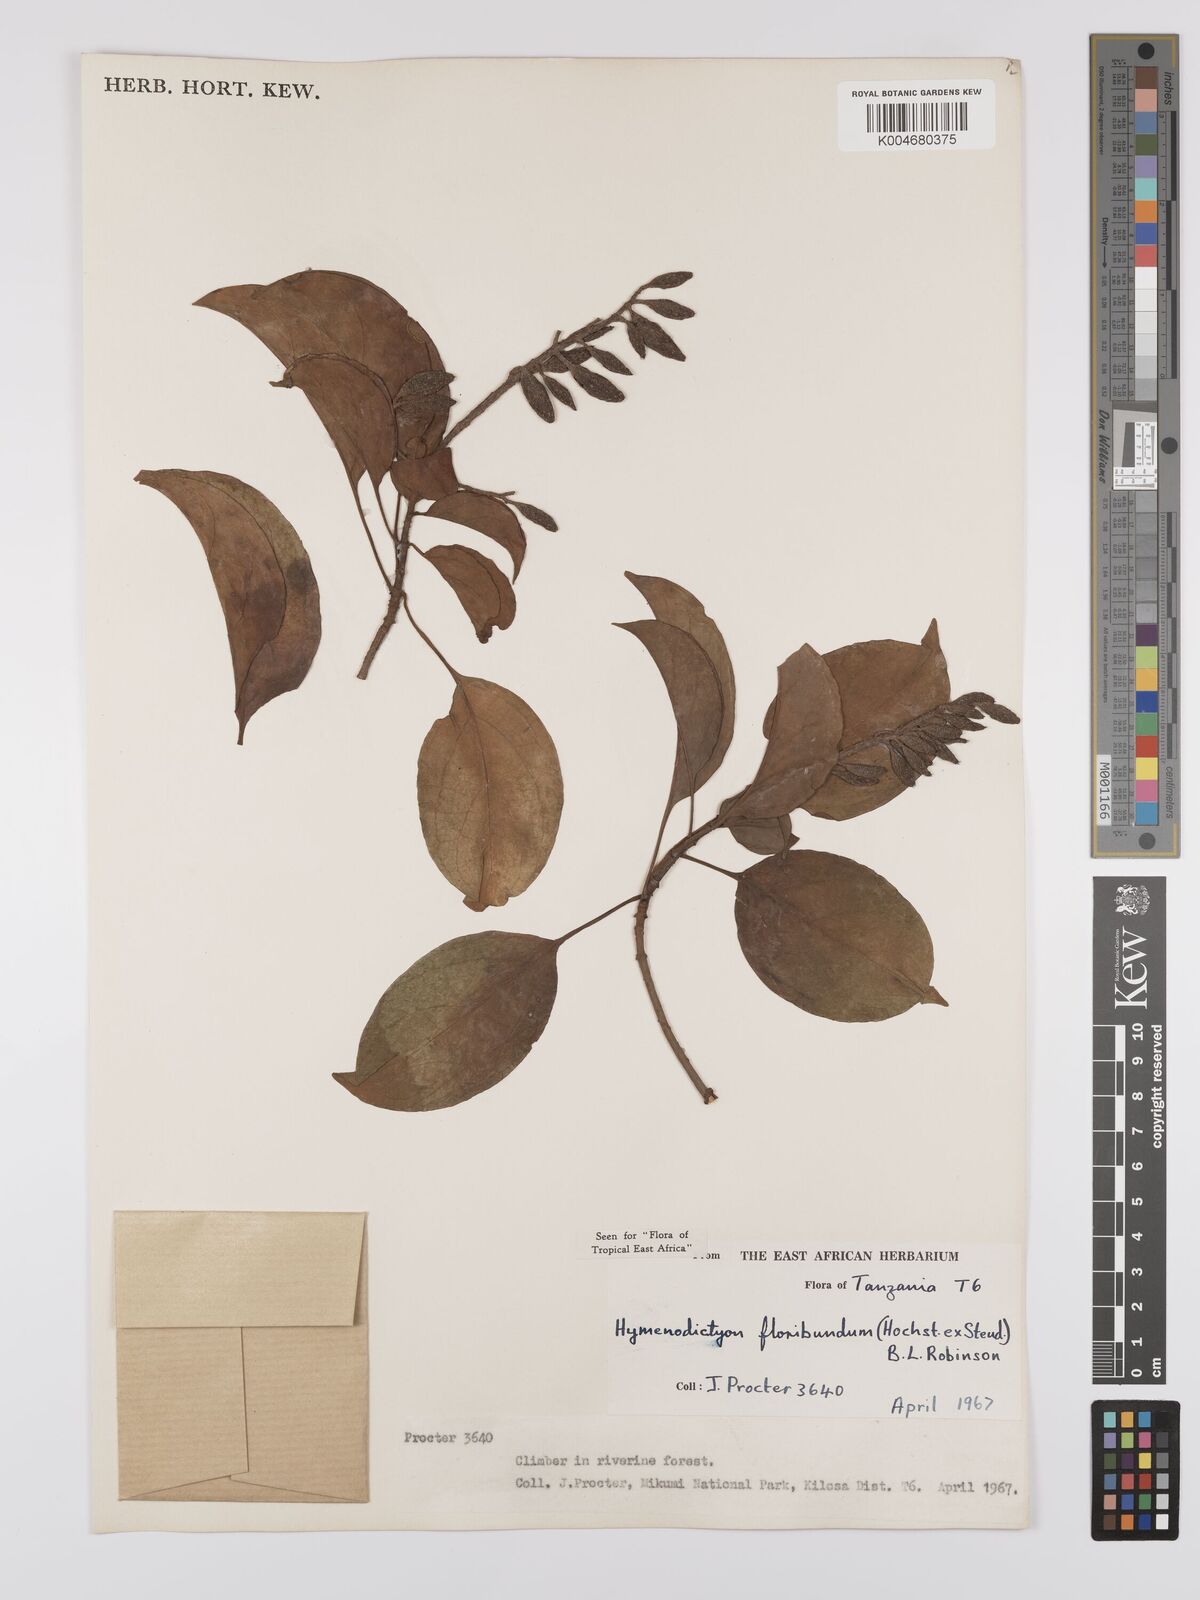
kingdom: Plantae
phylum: Tracheophyta
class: Magnoliopsida
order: Gentianales
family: Rubiaceae
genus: Hymenodictyon
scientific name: Hymenodictyon floribundum
